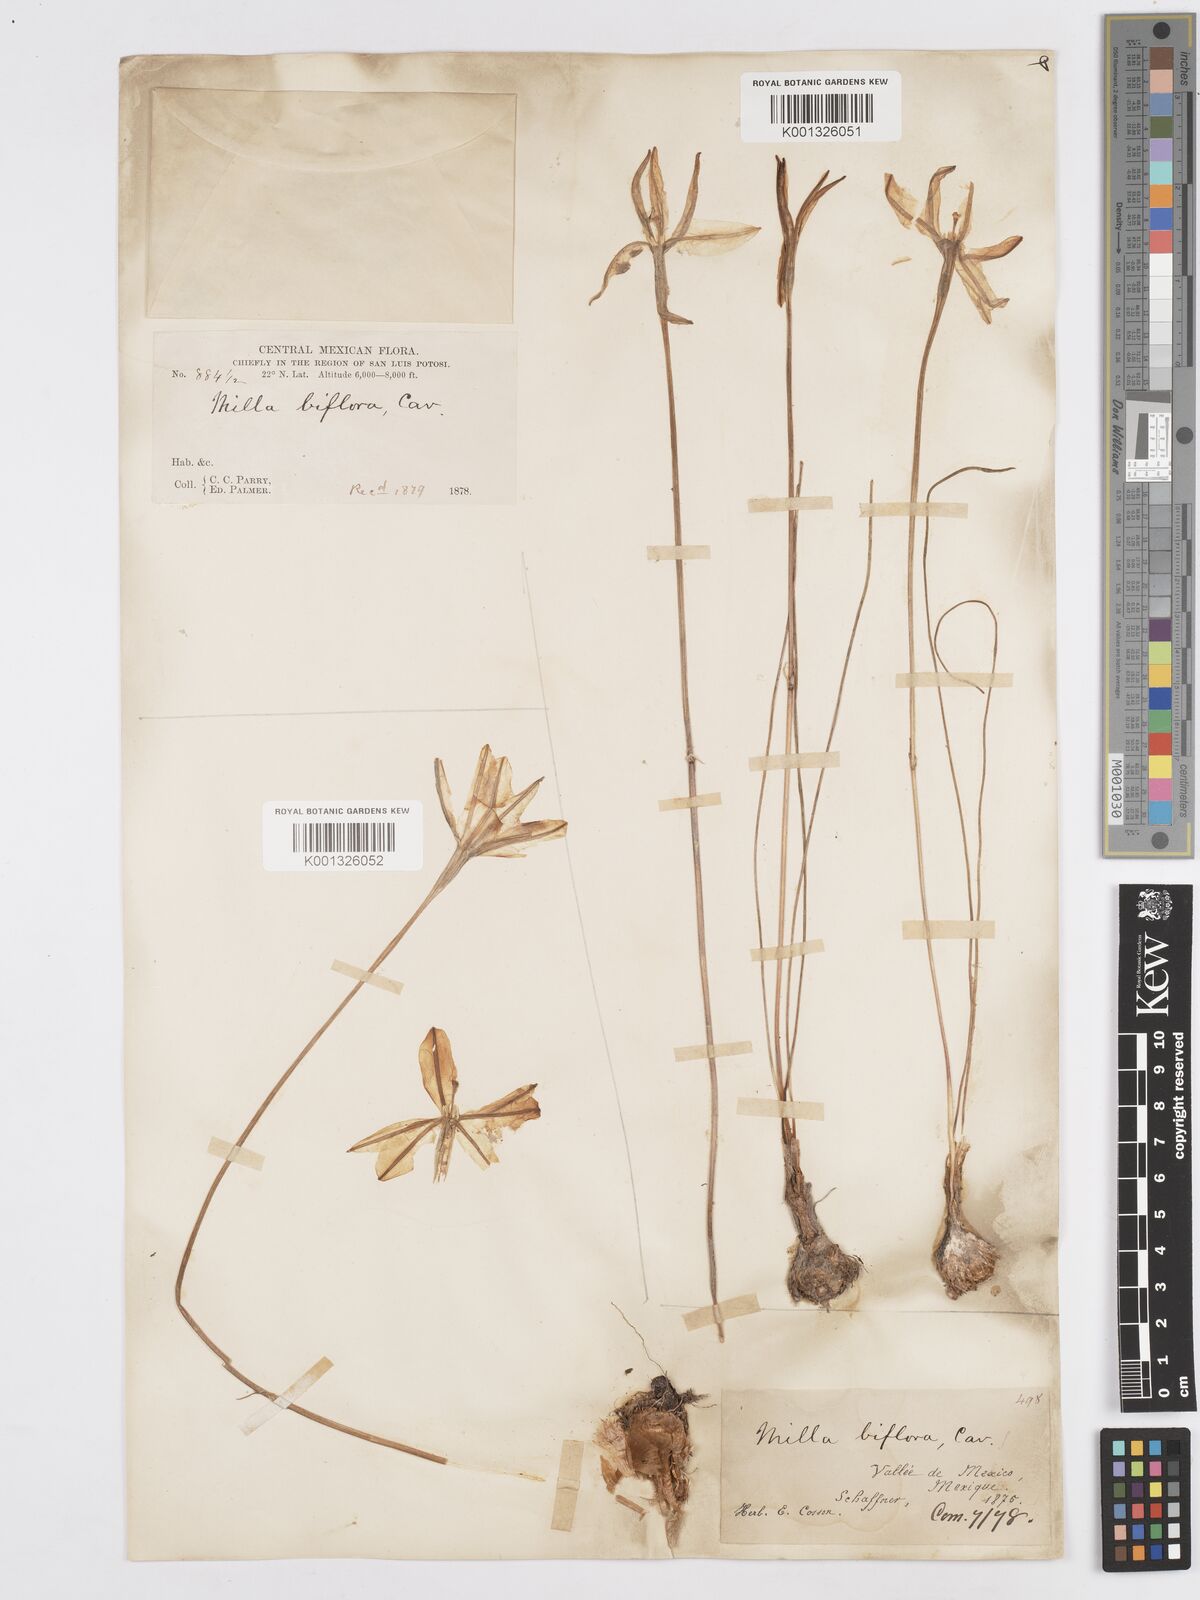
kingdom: Plantae
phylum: Tracheophyta
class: Liliopsida
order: Asparagales
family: Asparagaceae
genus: Milla
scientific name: Milla biflora
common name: Mexican-star
